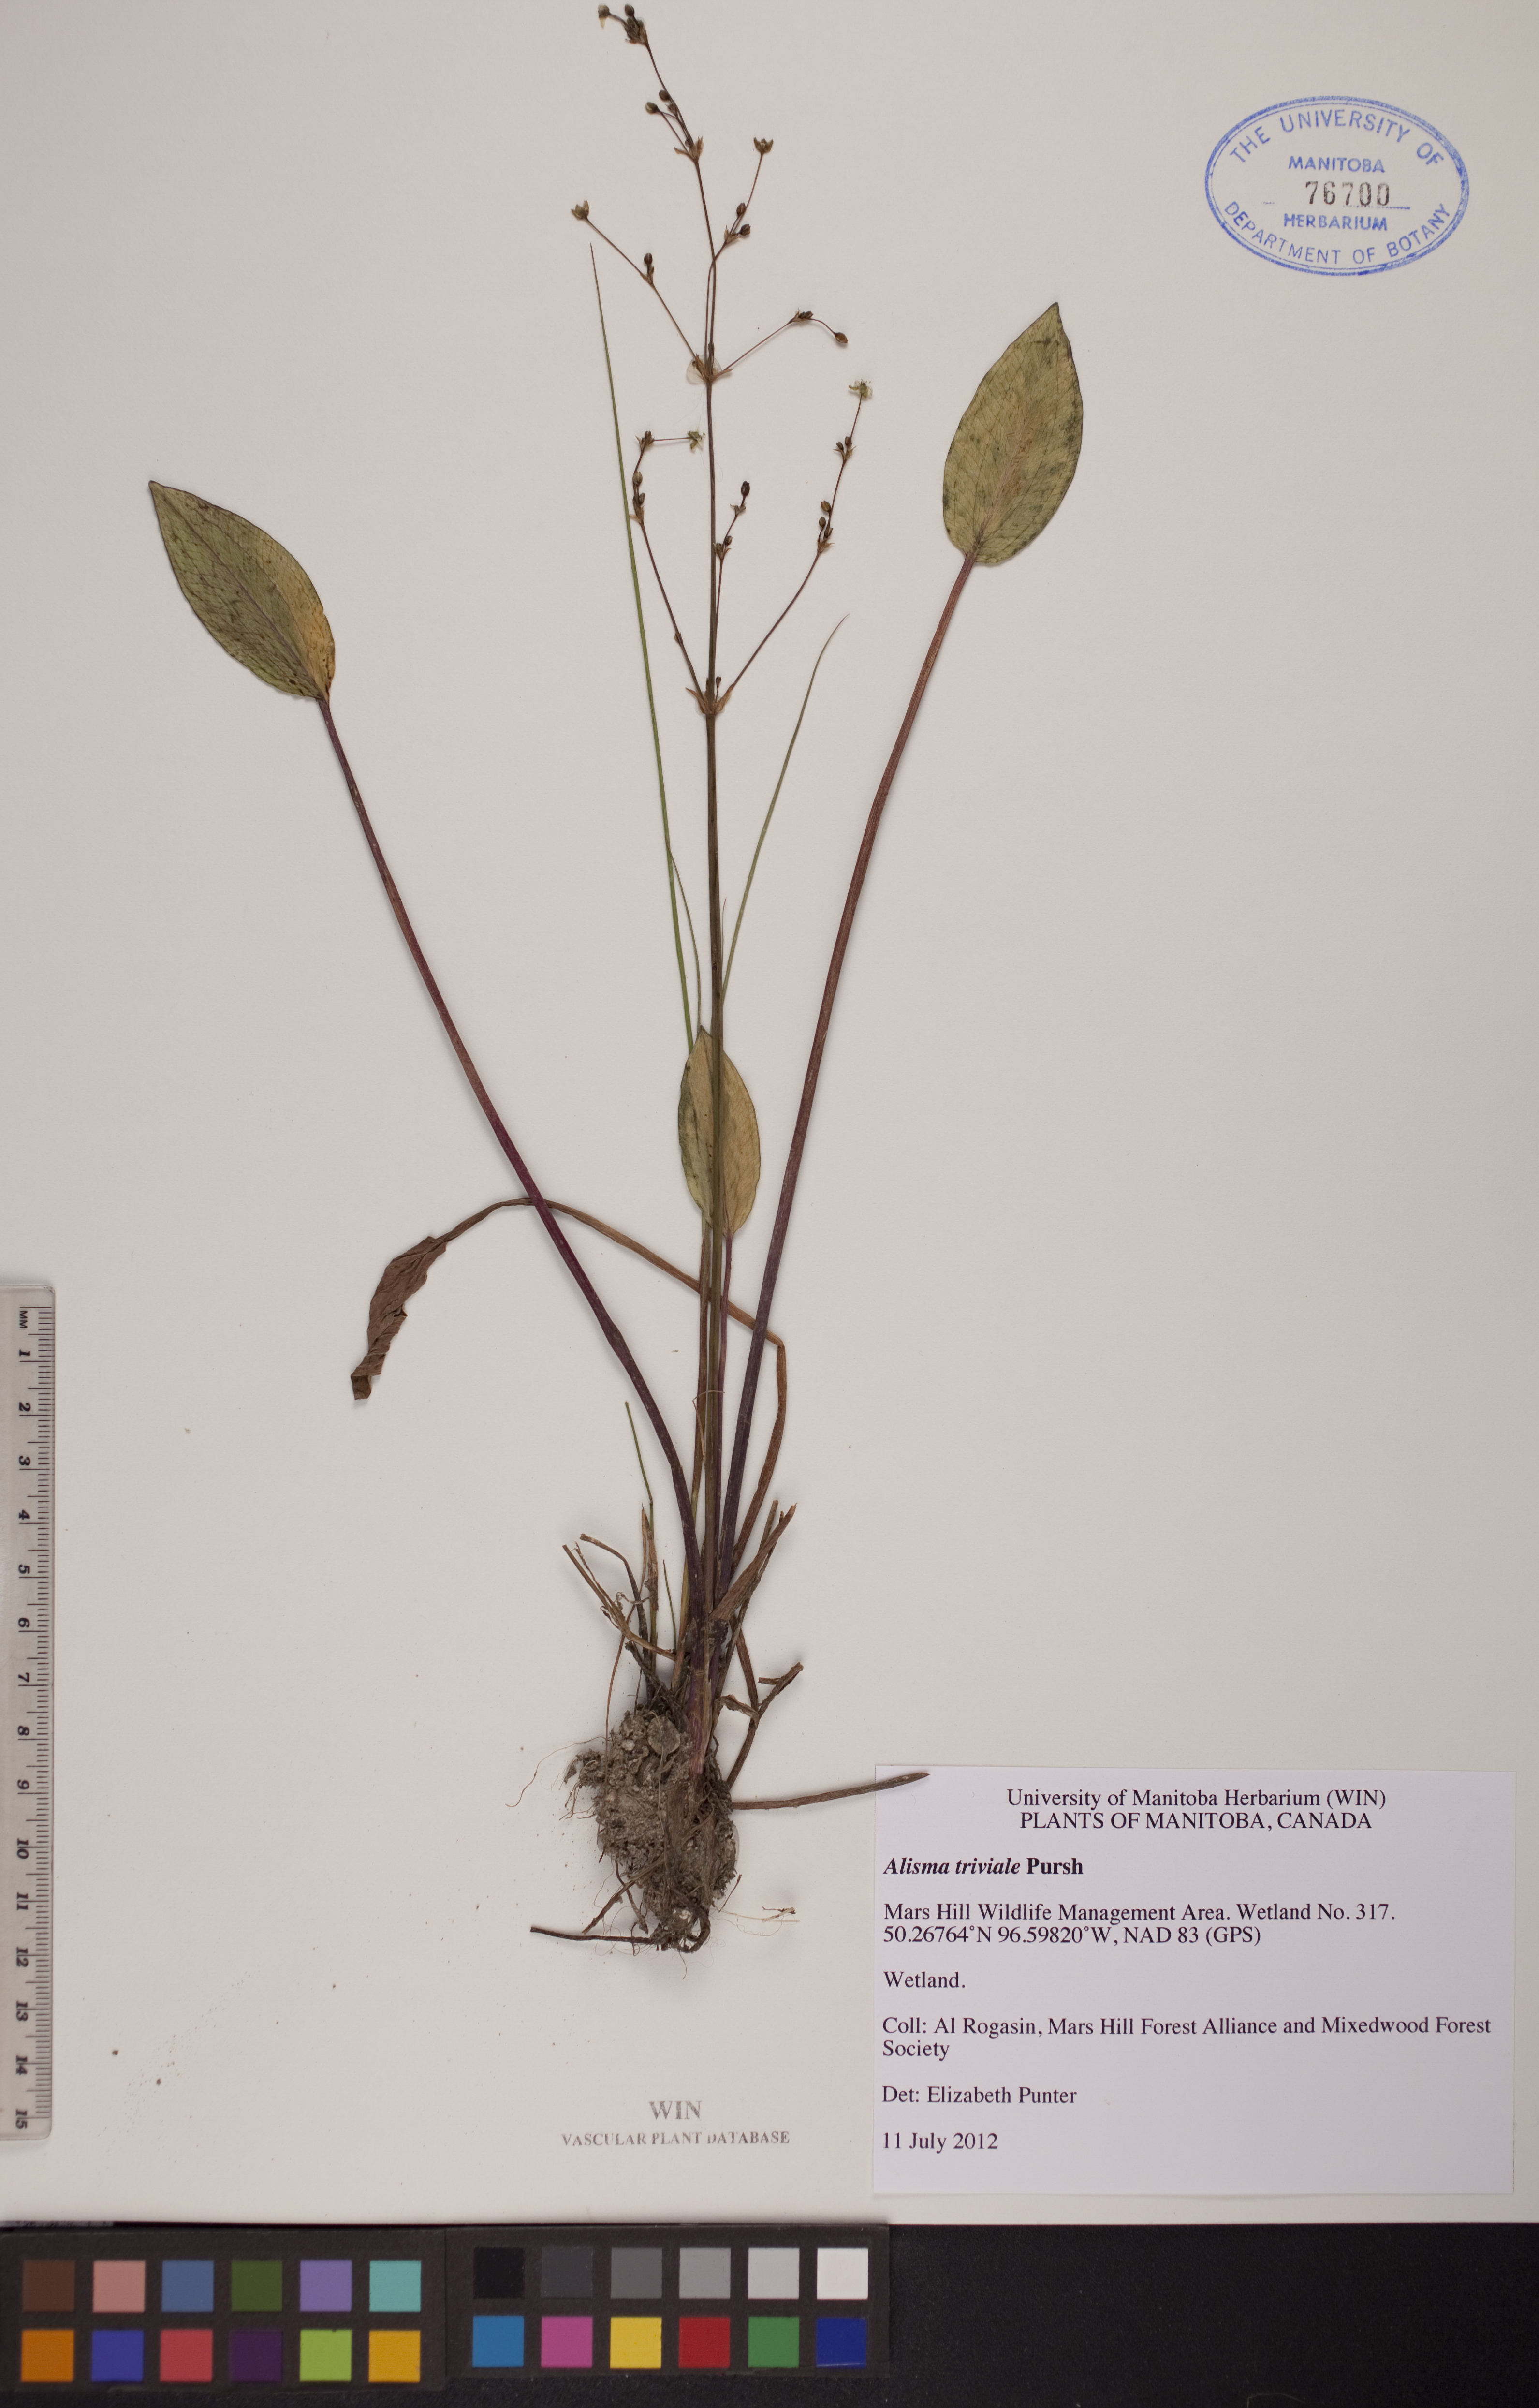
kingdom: Plantae
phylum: Tracheophyta
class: Liliopsida
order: Alismatales
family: Alismataceae
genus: Alisma
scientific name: Alisma triviale
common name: Northern water-plantain
